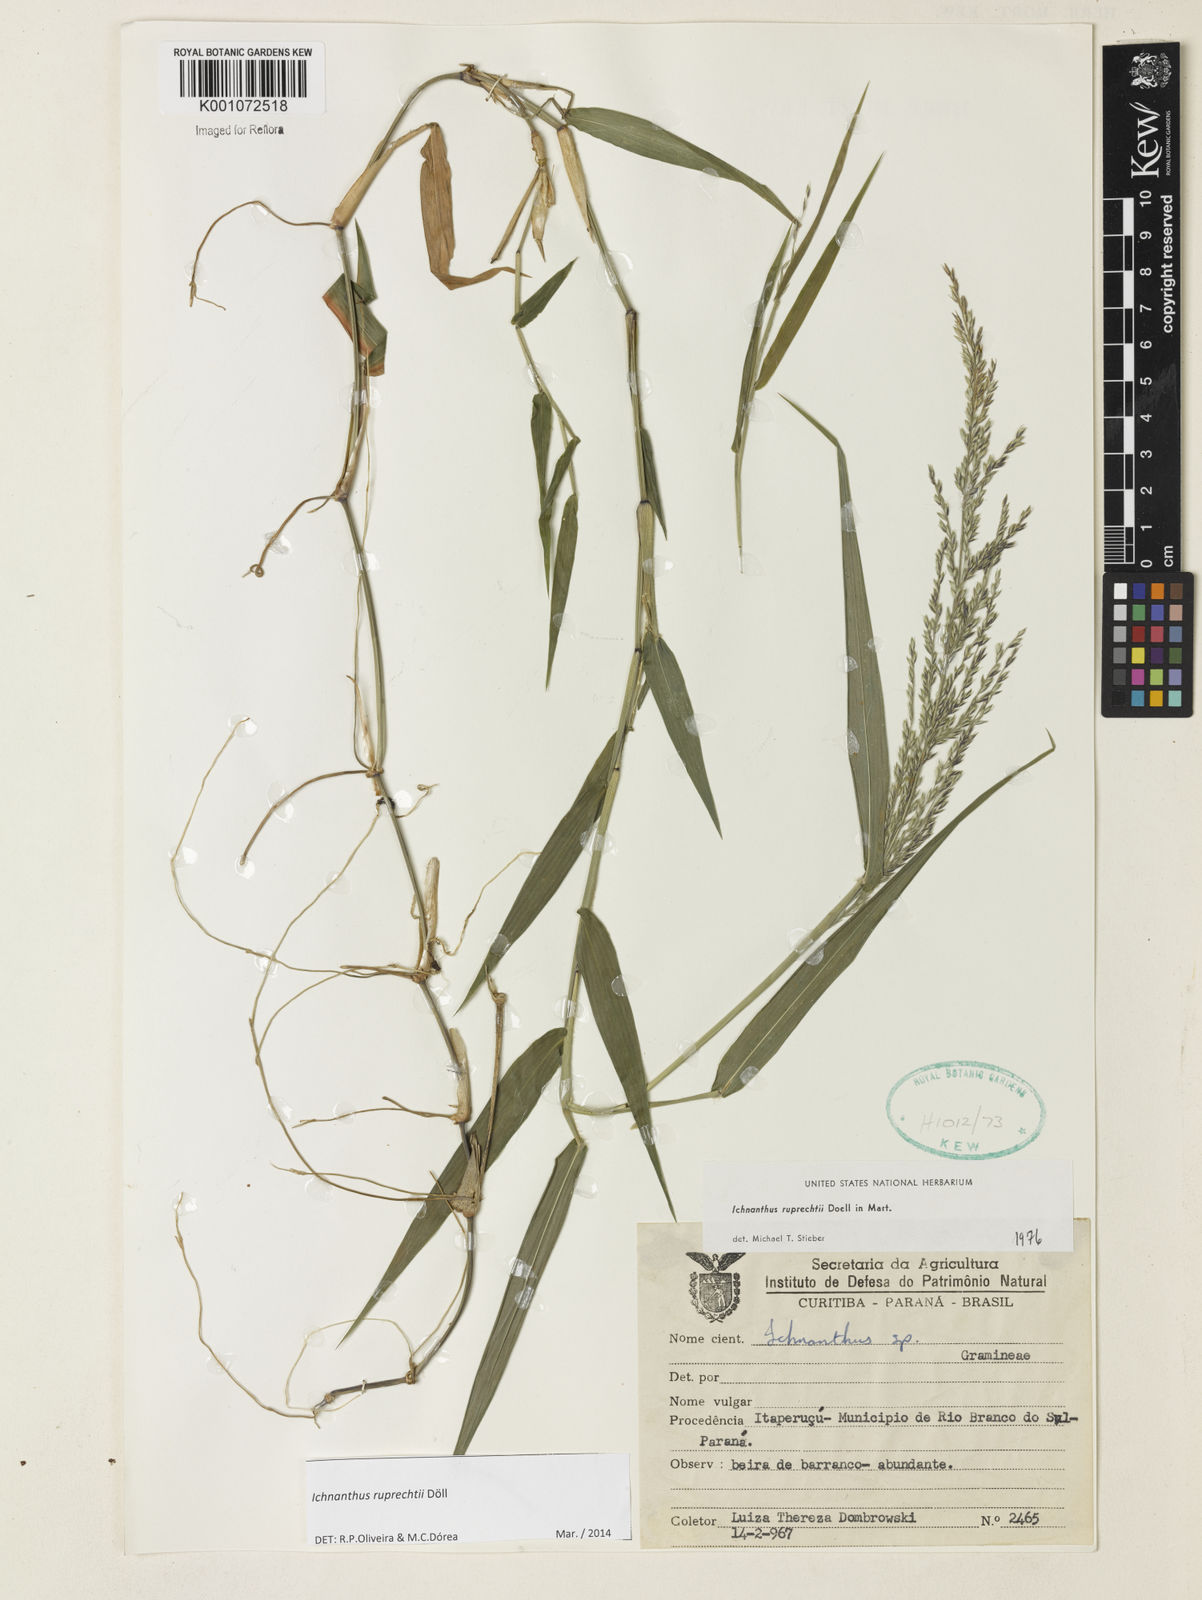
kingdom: Plantae
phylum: Tracheophyta
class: Liliopsida
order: Poales
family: Poaceae
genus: Ichnanthus
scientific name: Ichnanthus
